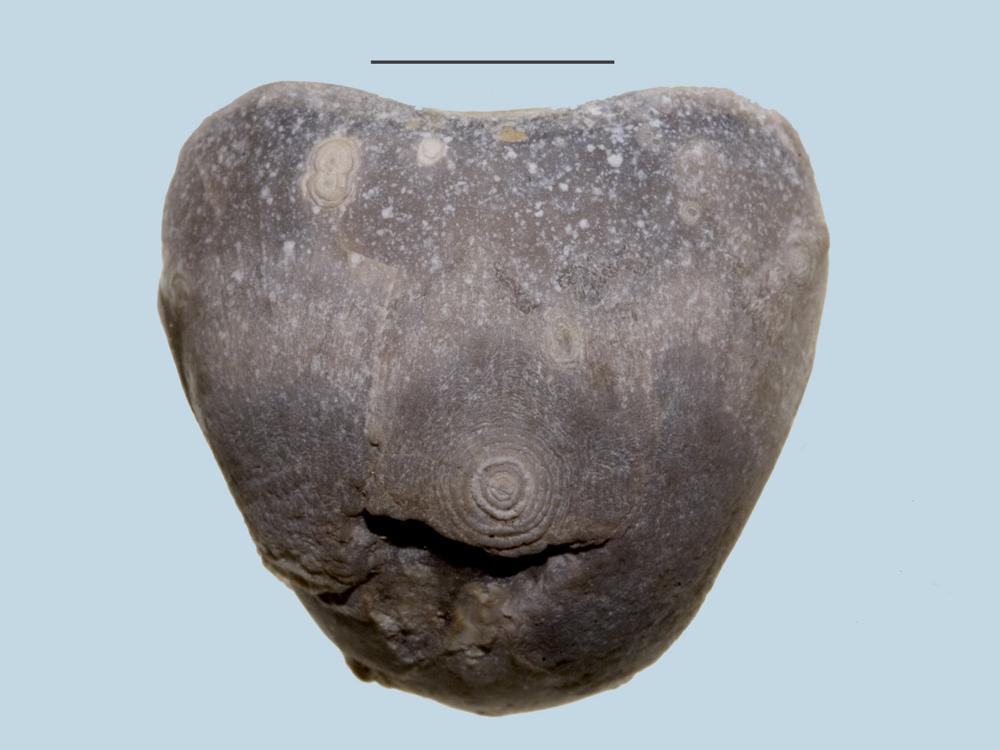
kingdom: Animalia
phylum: Brachiopoda
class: Rhynchonellata
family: Porambonitidae
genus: Porambonites
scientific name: Porambonites
